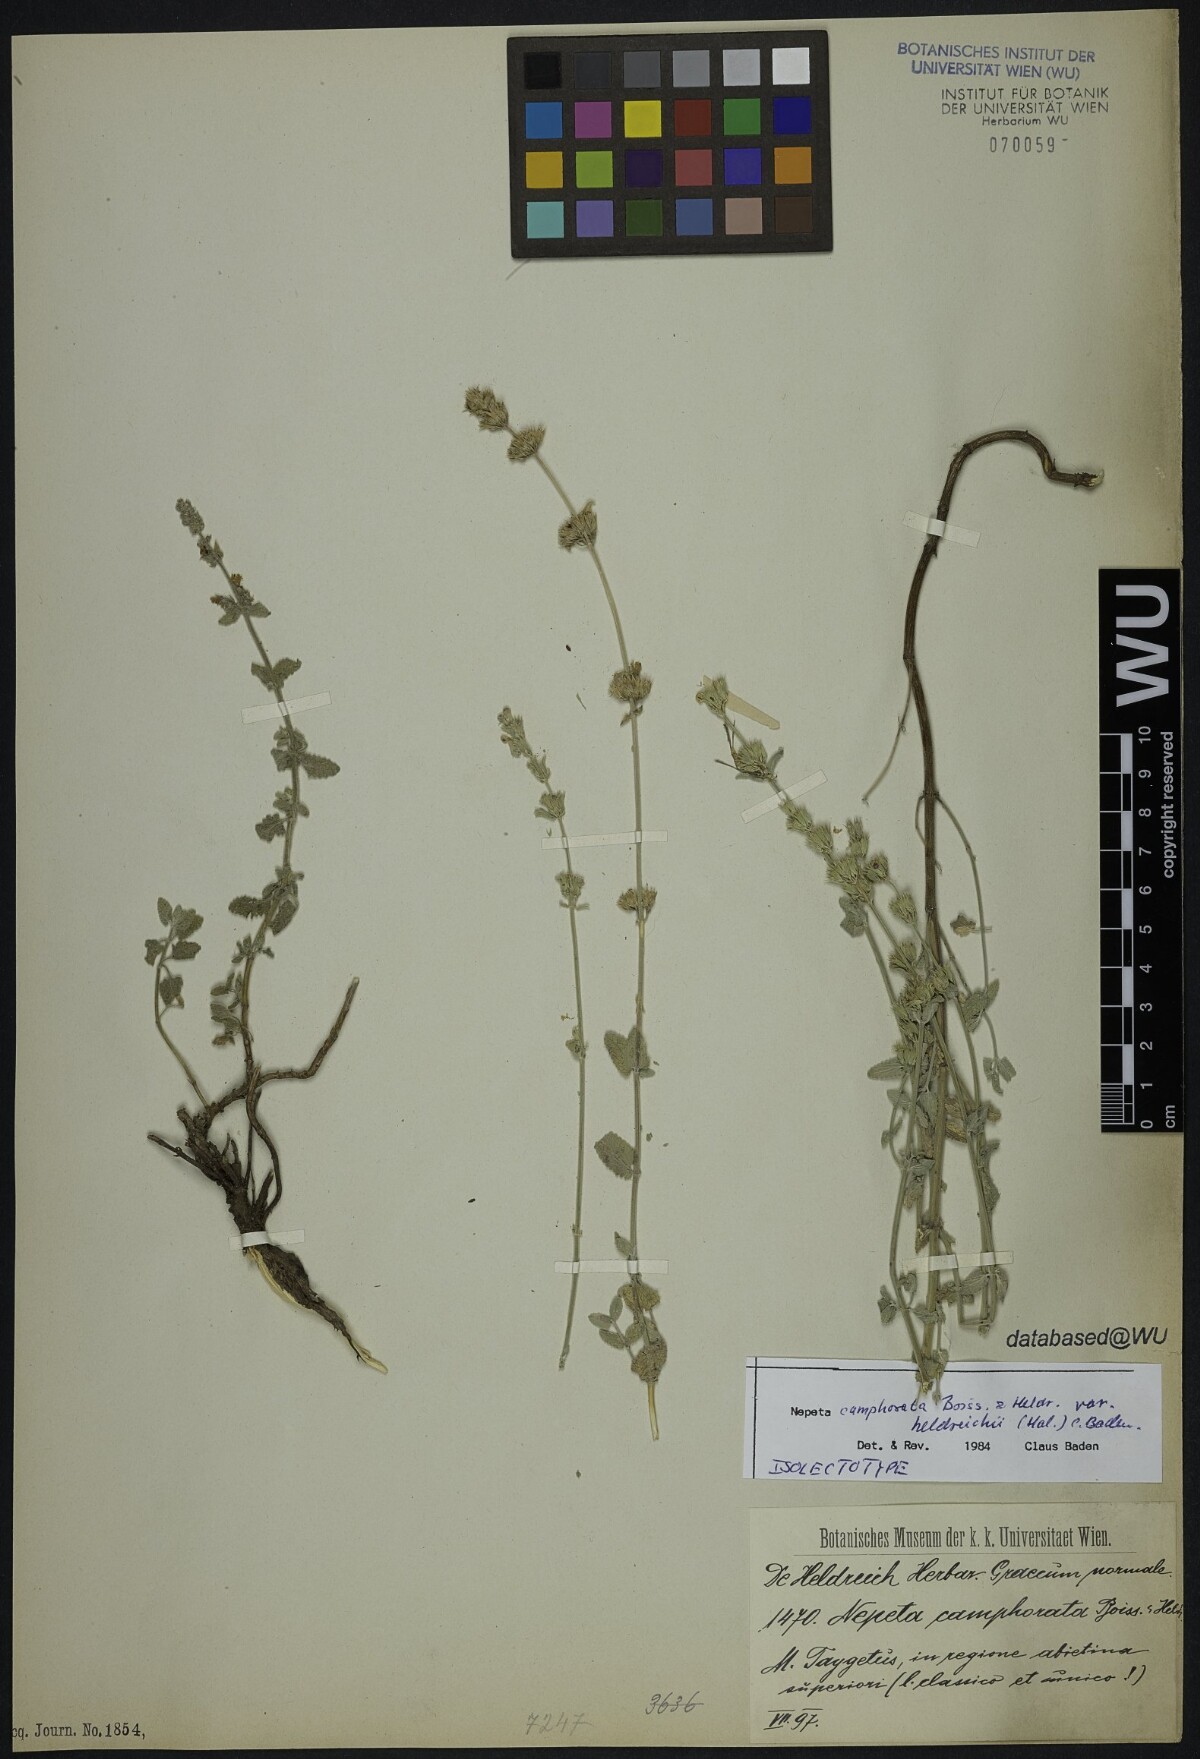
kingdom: Plantae
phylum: Tracheophyta
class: Magnoliopsida
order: Lamiales
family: Lamiaceae
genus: Nepeta
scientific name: Nepeta camphorata
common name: Camphor catmint
